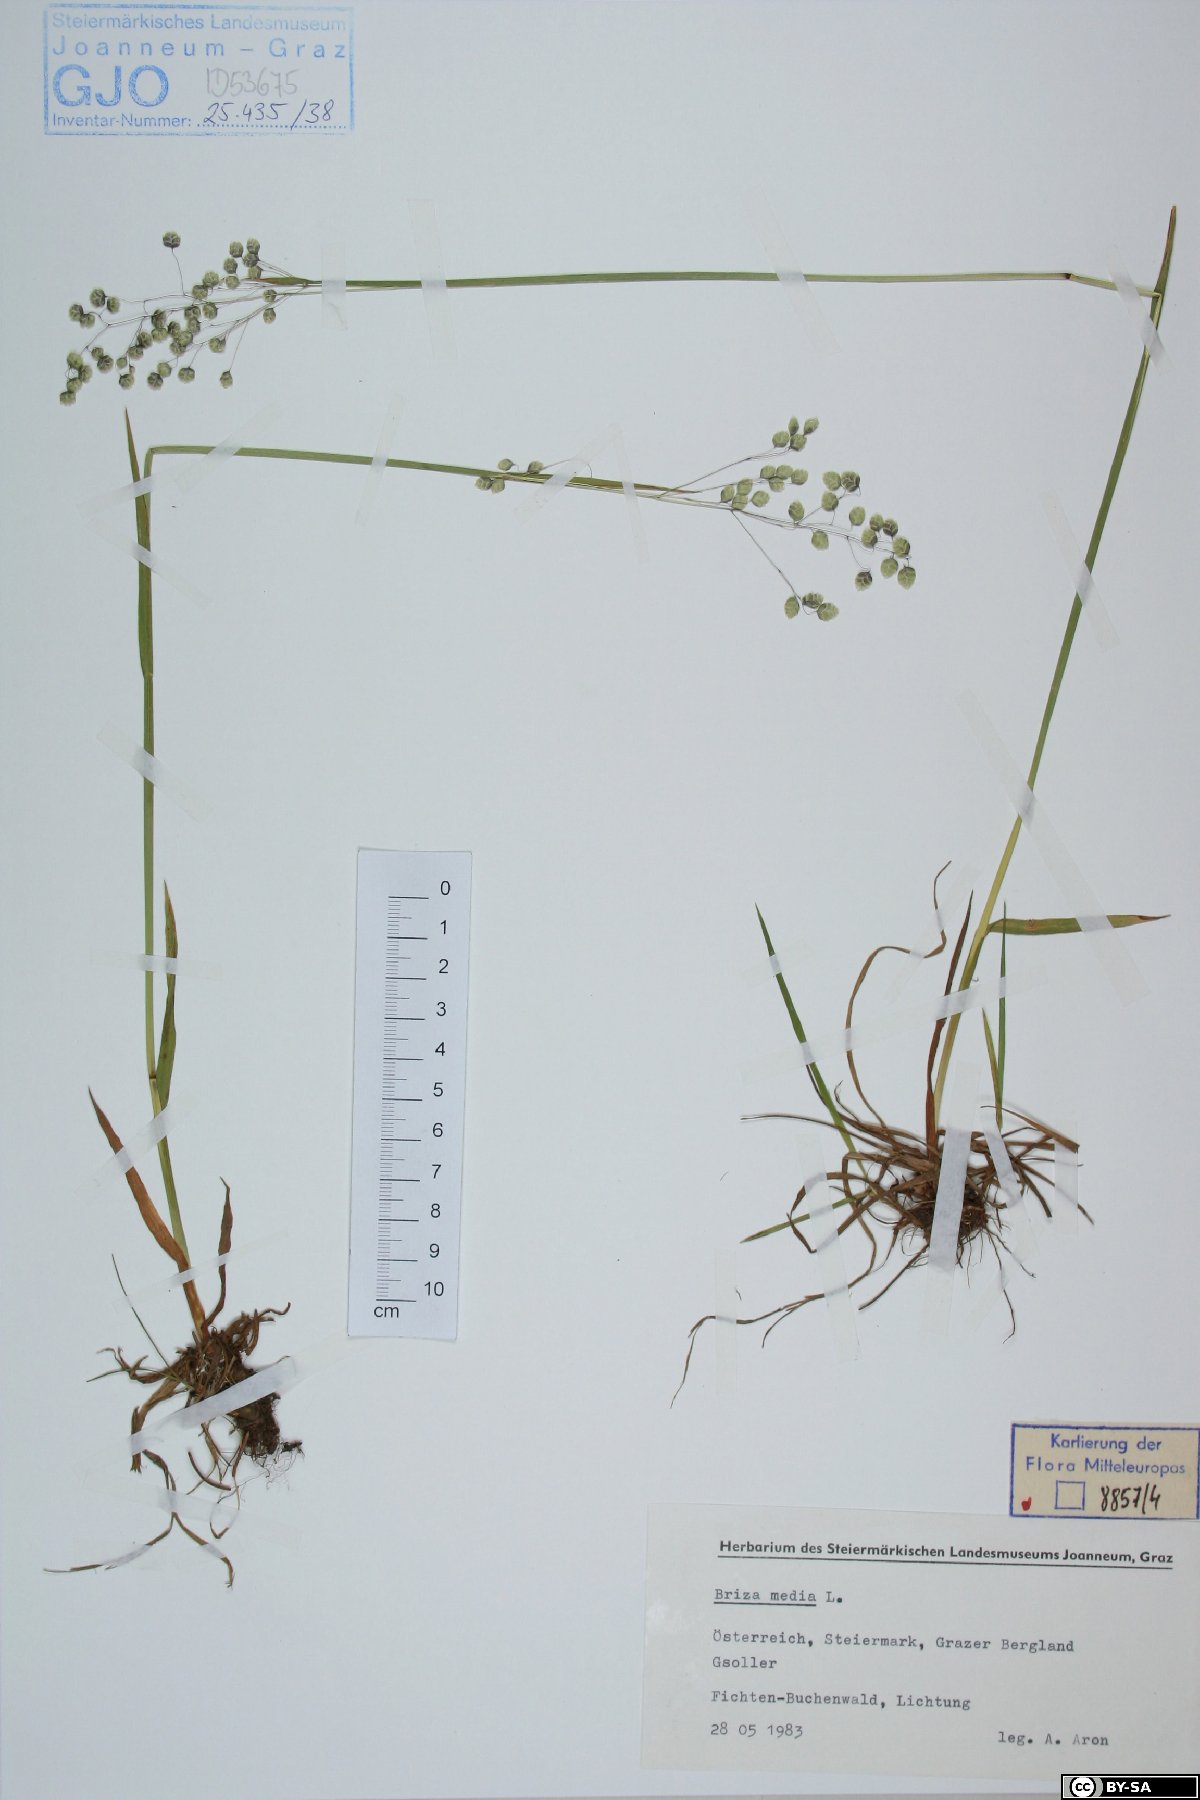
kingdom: Plantae
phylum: Tracheophyta
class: Liliopsida
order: Poales
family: Poaceae
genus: Briza
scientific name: Briza media
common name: Quaking grass
